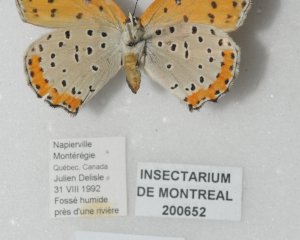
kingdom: Animalia
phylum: Arthropoda
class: Insecta
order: Lepidoptera
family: Sesiidae
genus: Sesia
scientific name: Sesia Lycaena hyllus
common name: Bronze Copper
